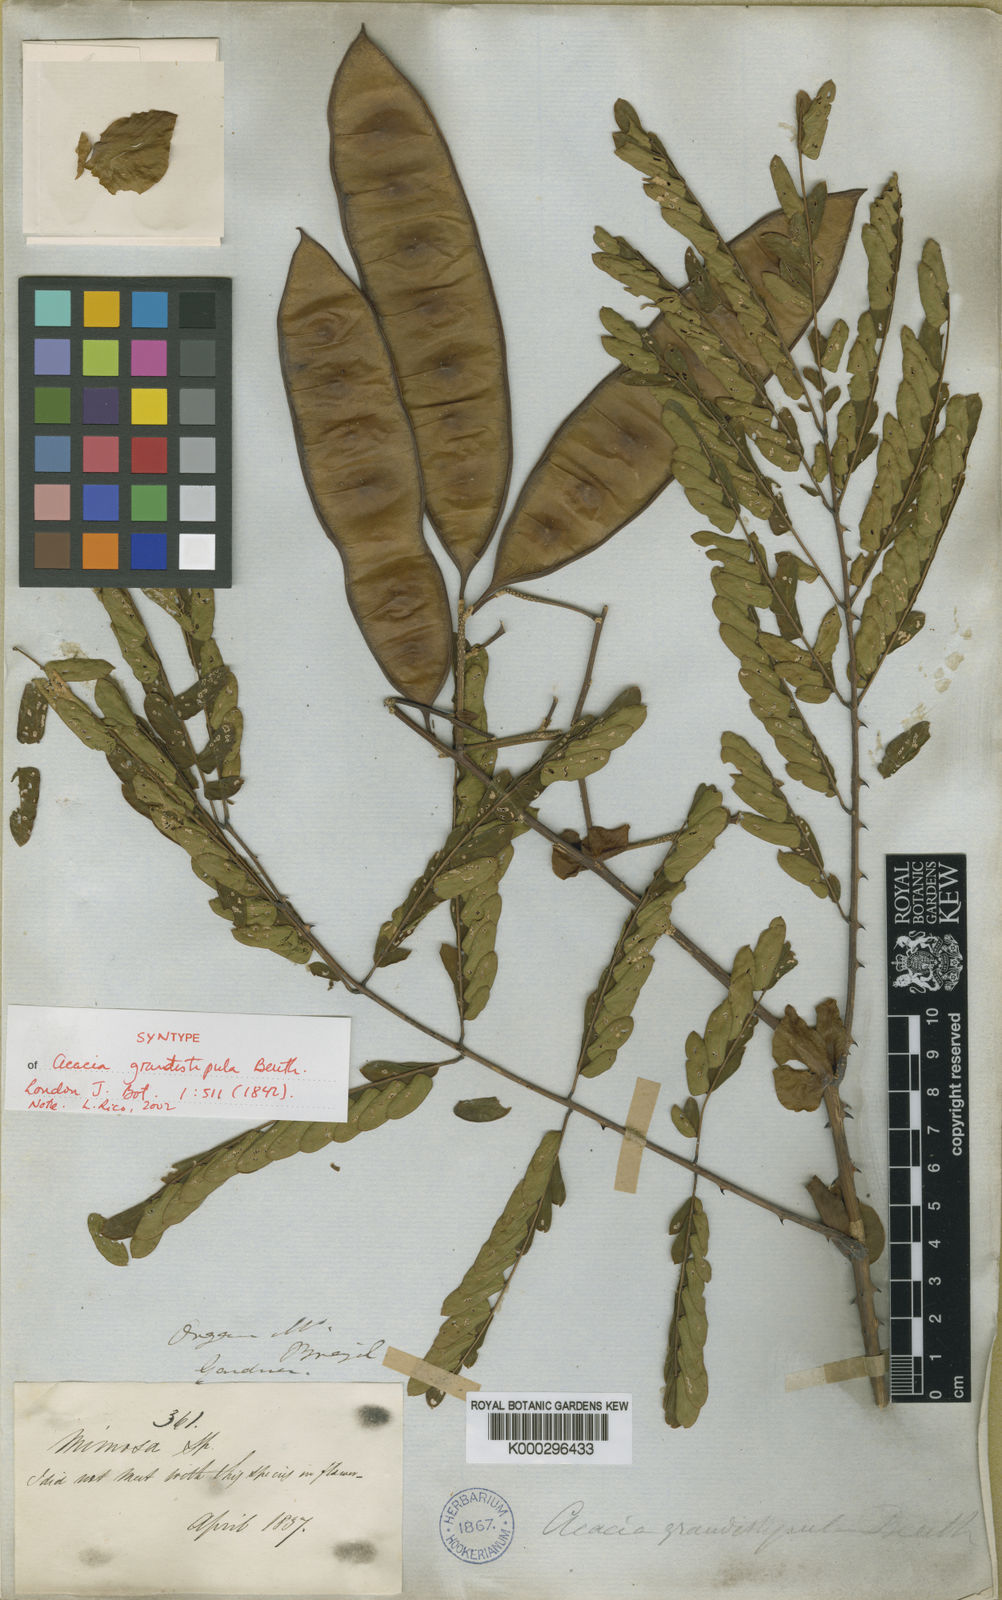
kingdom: Plantae
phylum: Tracheophyta
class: Magnoliopsida
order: Fabales
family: Fabaceae
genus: Senegalia
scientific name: Senegalia grandistipula
